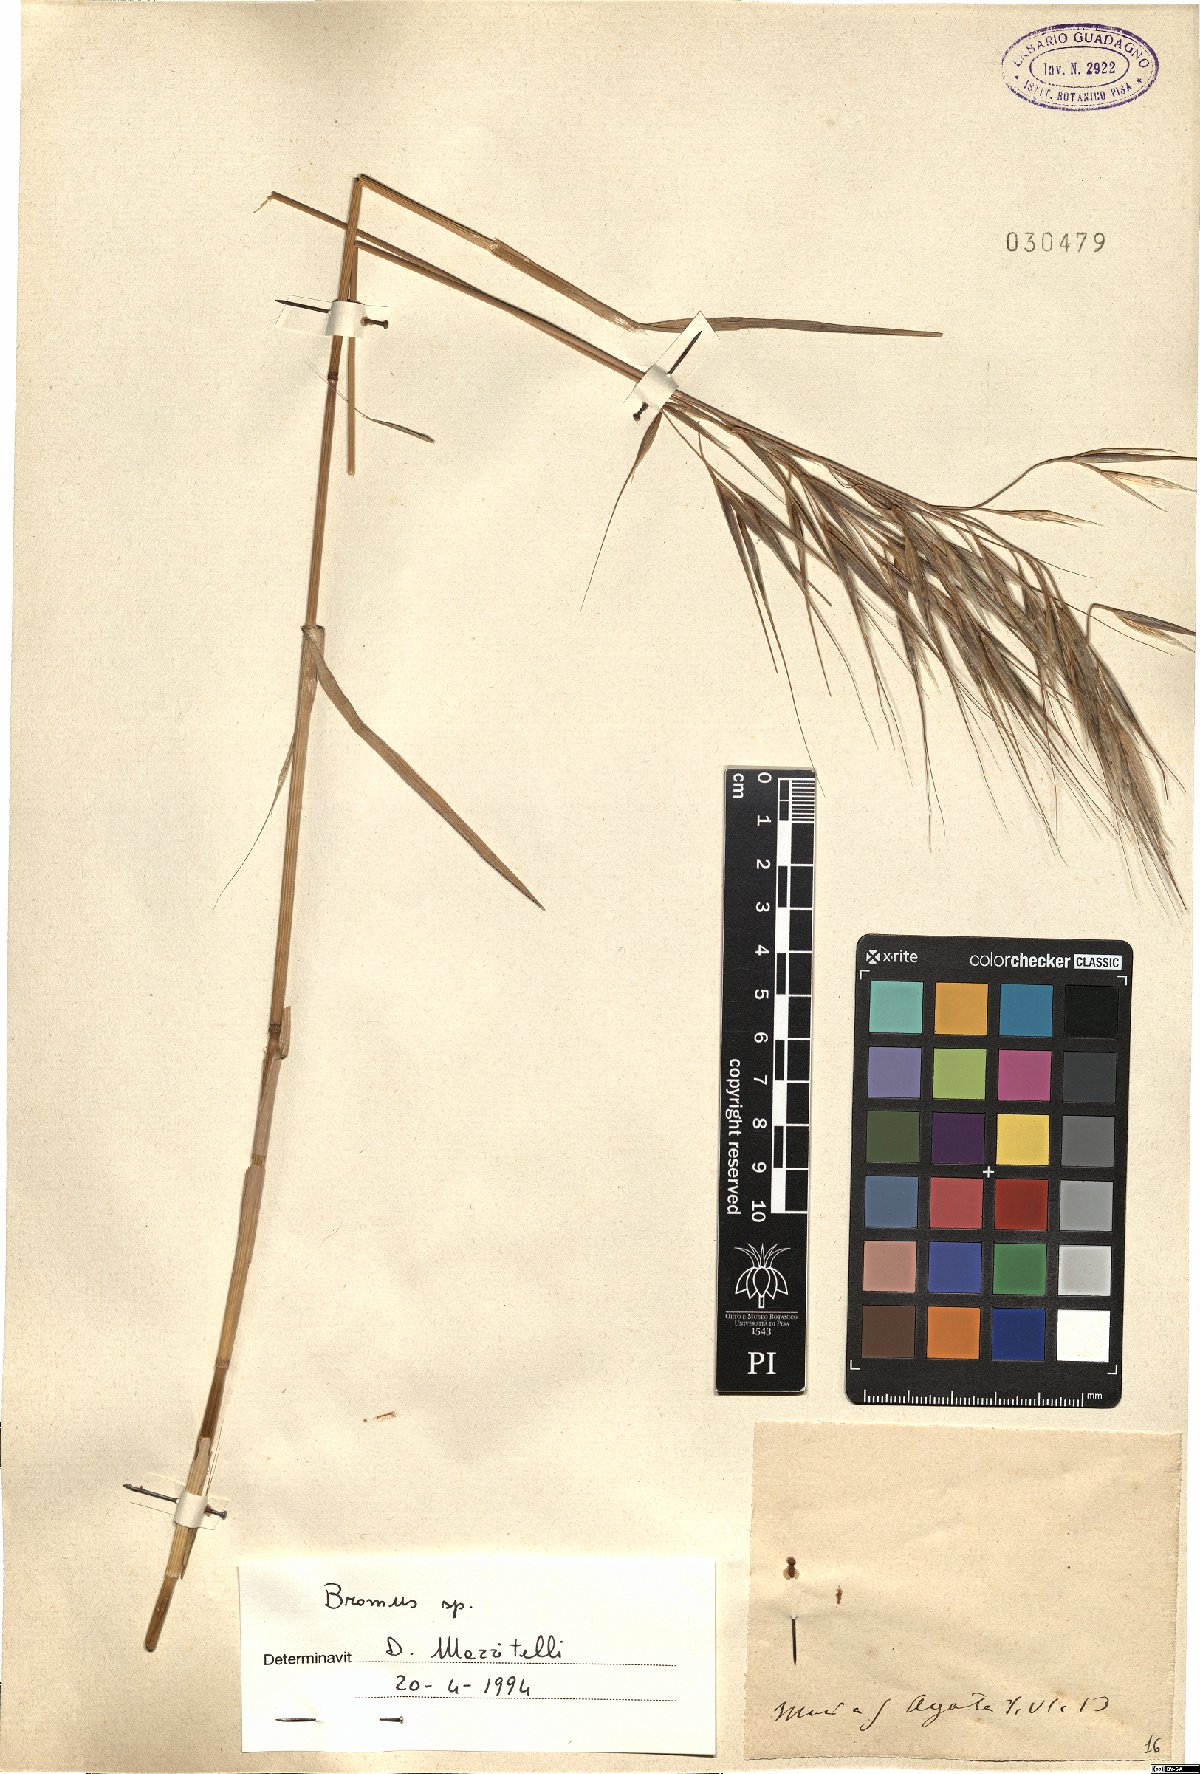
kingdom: Plantae
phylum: Tracheophyta
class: Liliopsida
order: Poales
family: Poaceae
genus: Bromus
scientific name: Bromus
